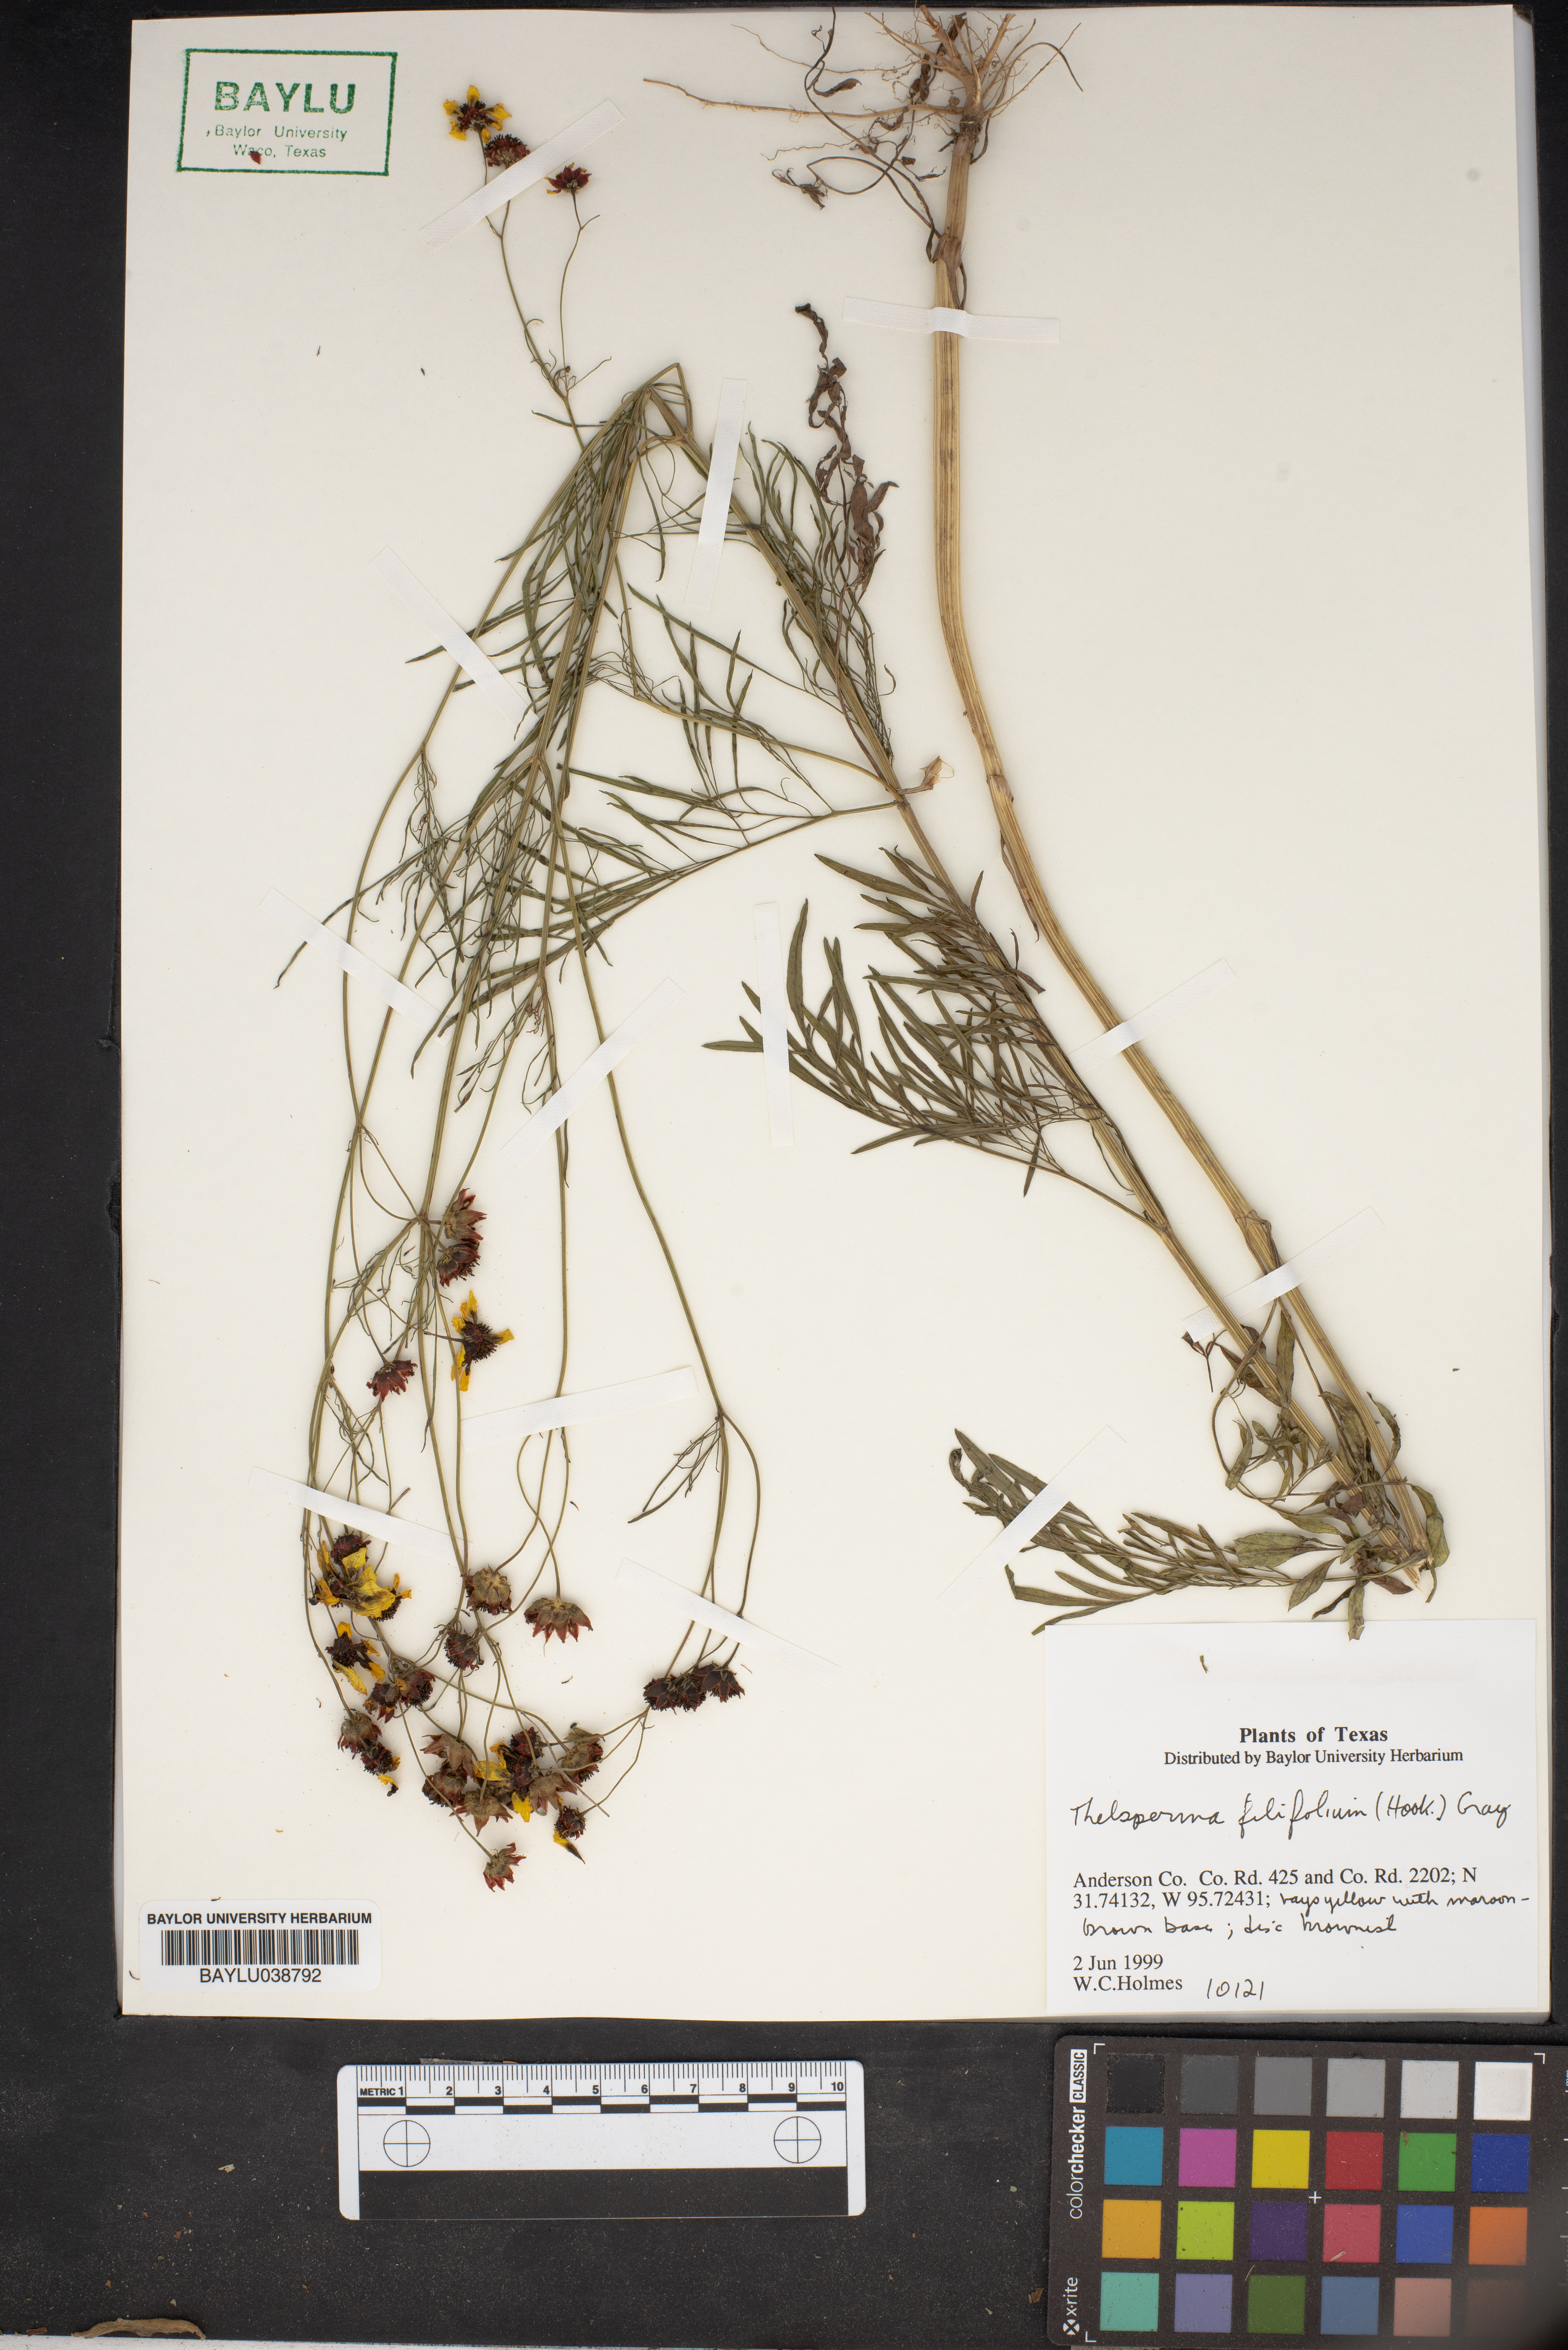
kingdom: Plantae
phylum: Tracheophyta
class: Magnoliopsida
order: Asterales
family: Asteraceae
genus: Thelesperma
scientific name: Thelesperma filifolium
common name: Stiff greenthread
